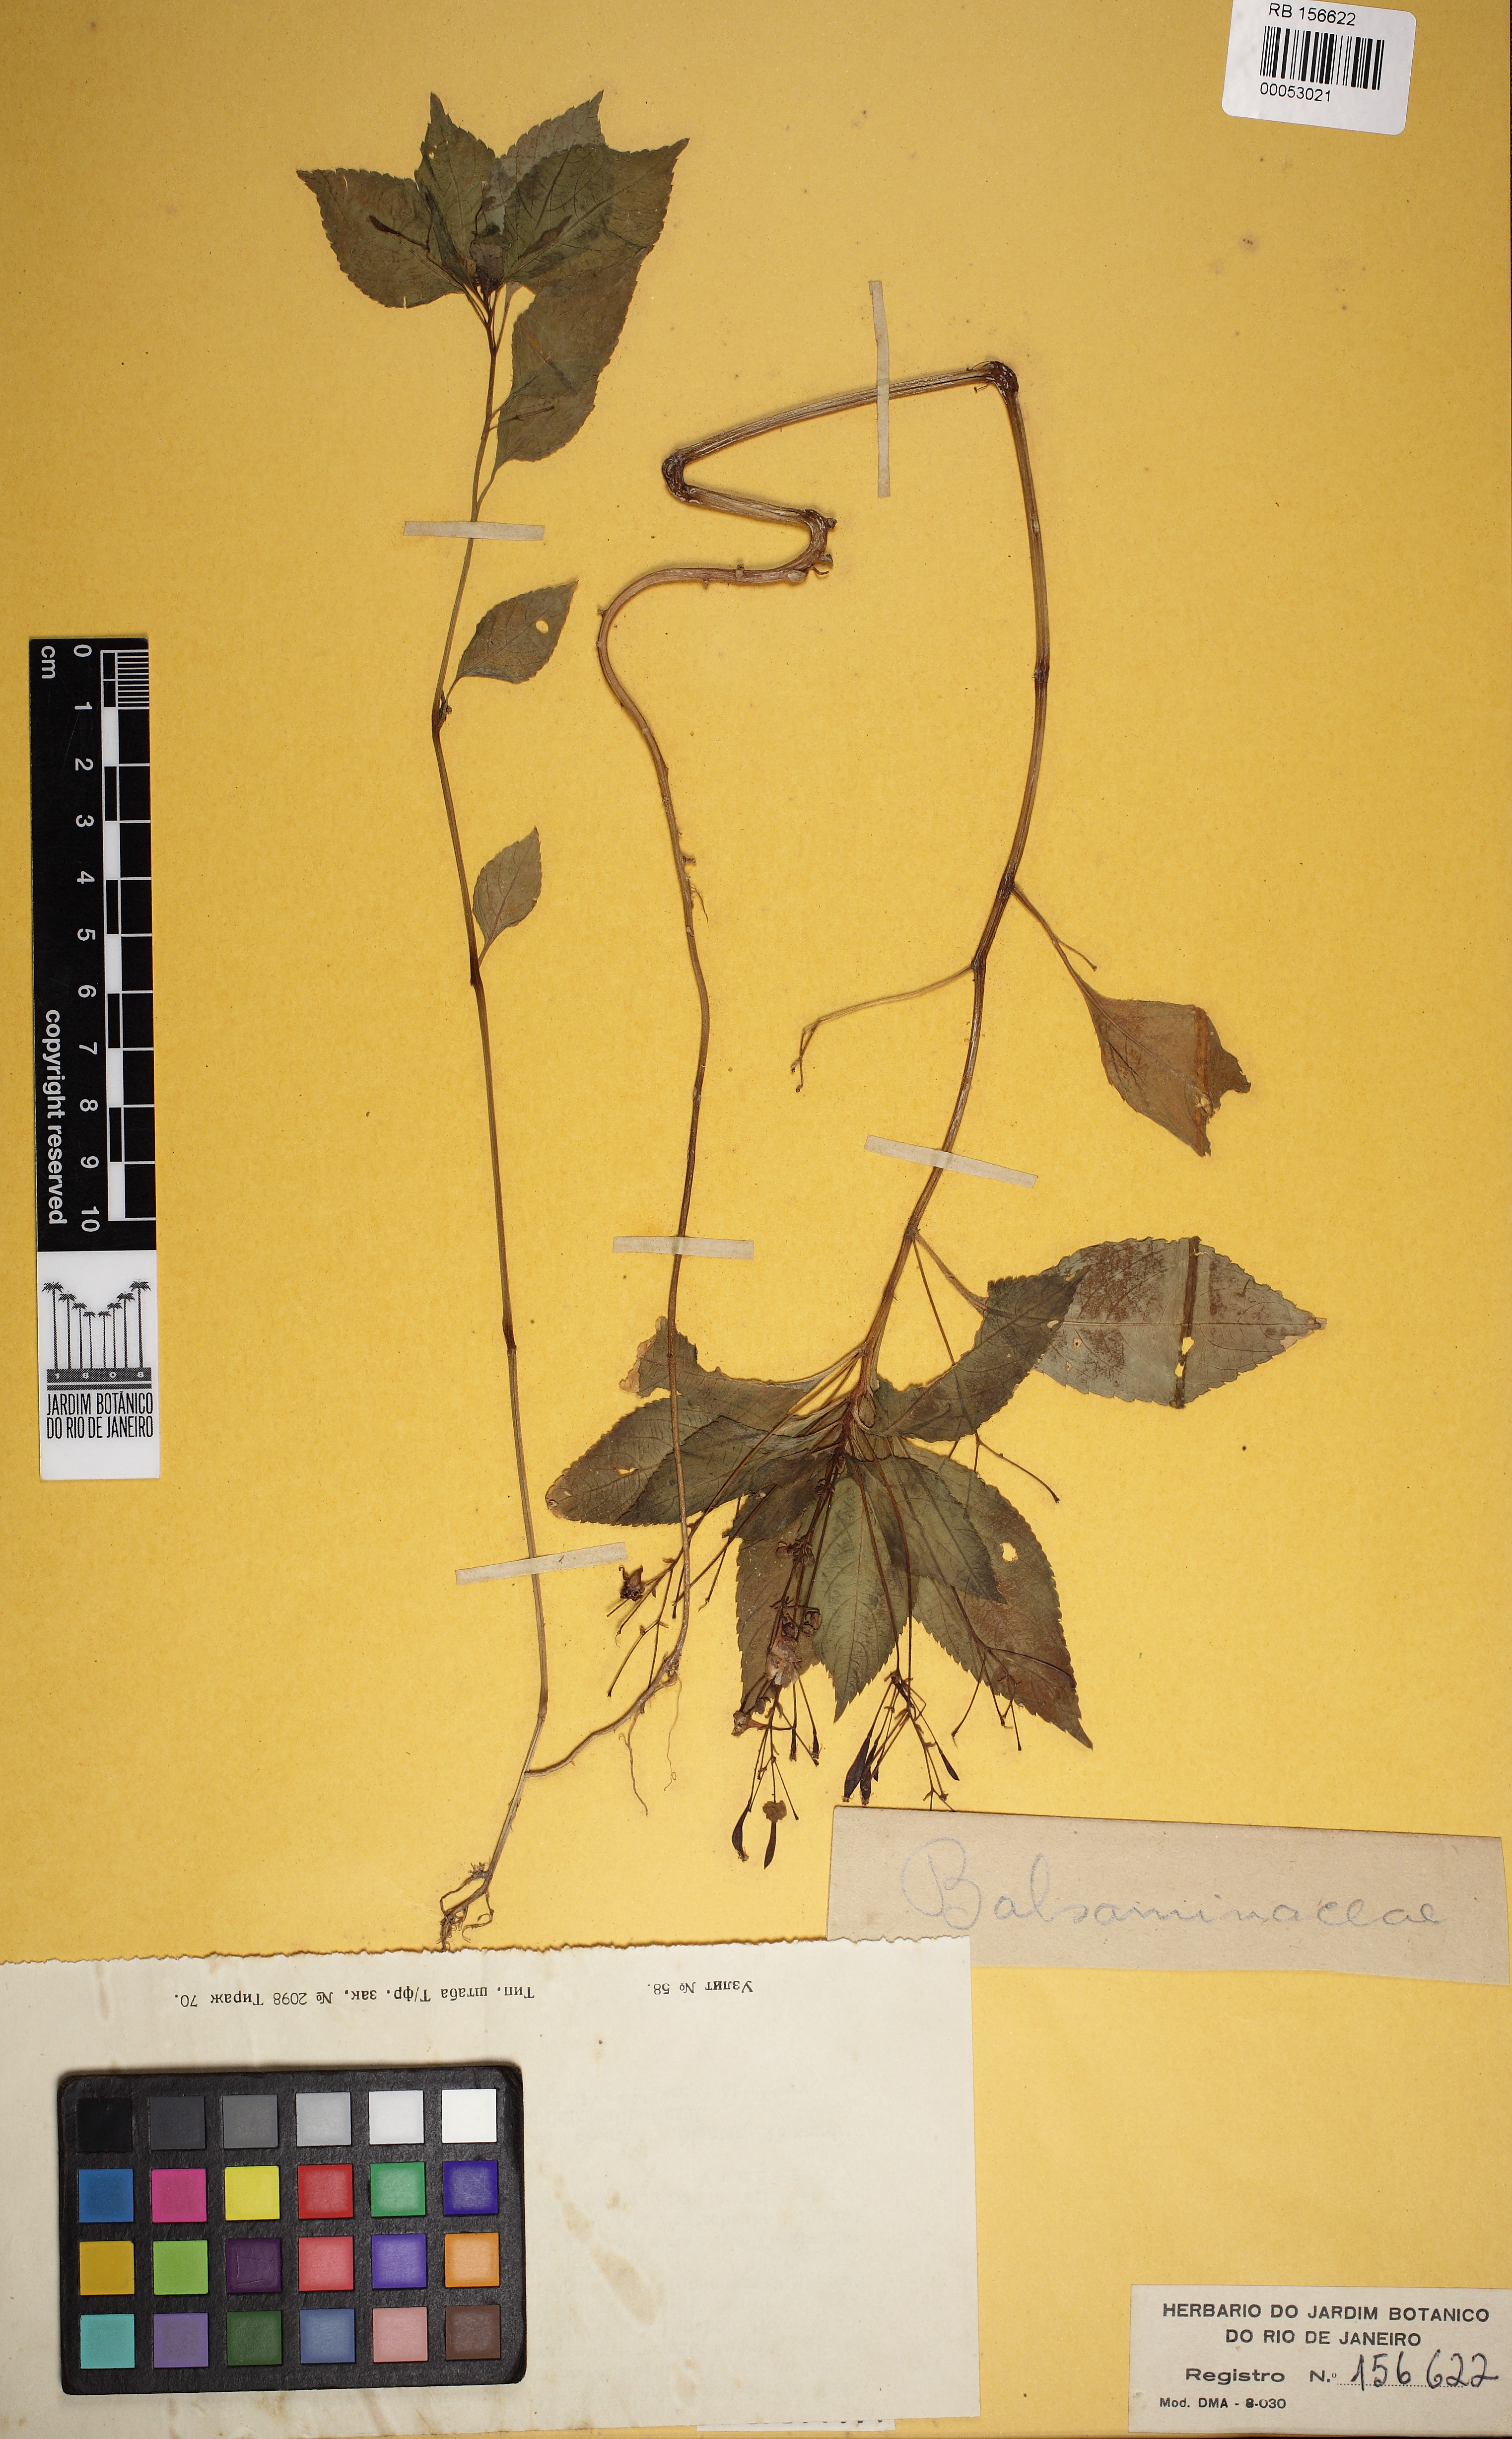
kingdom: Plantae
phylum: Tracheophyta
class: Magnoliopsida
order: Ericales
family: Balsaminaceae
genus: Impatiens
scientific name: Impatiens parviflora
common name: Small balsam
